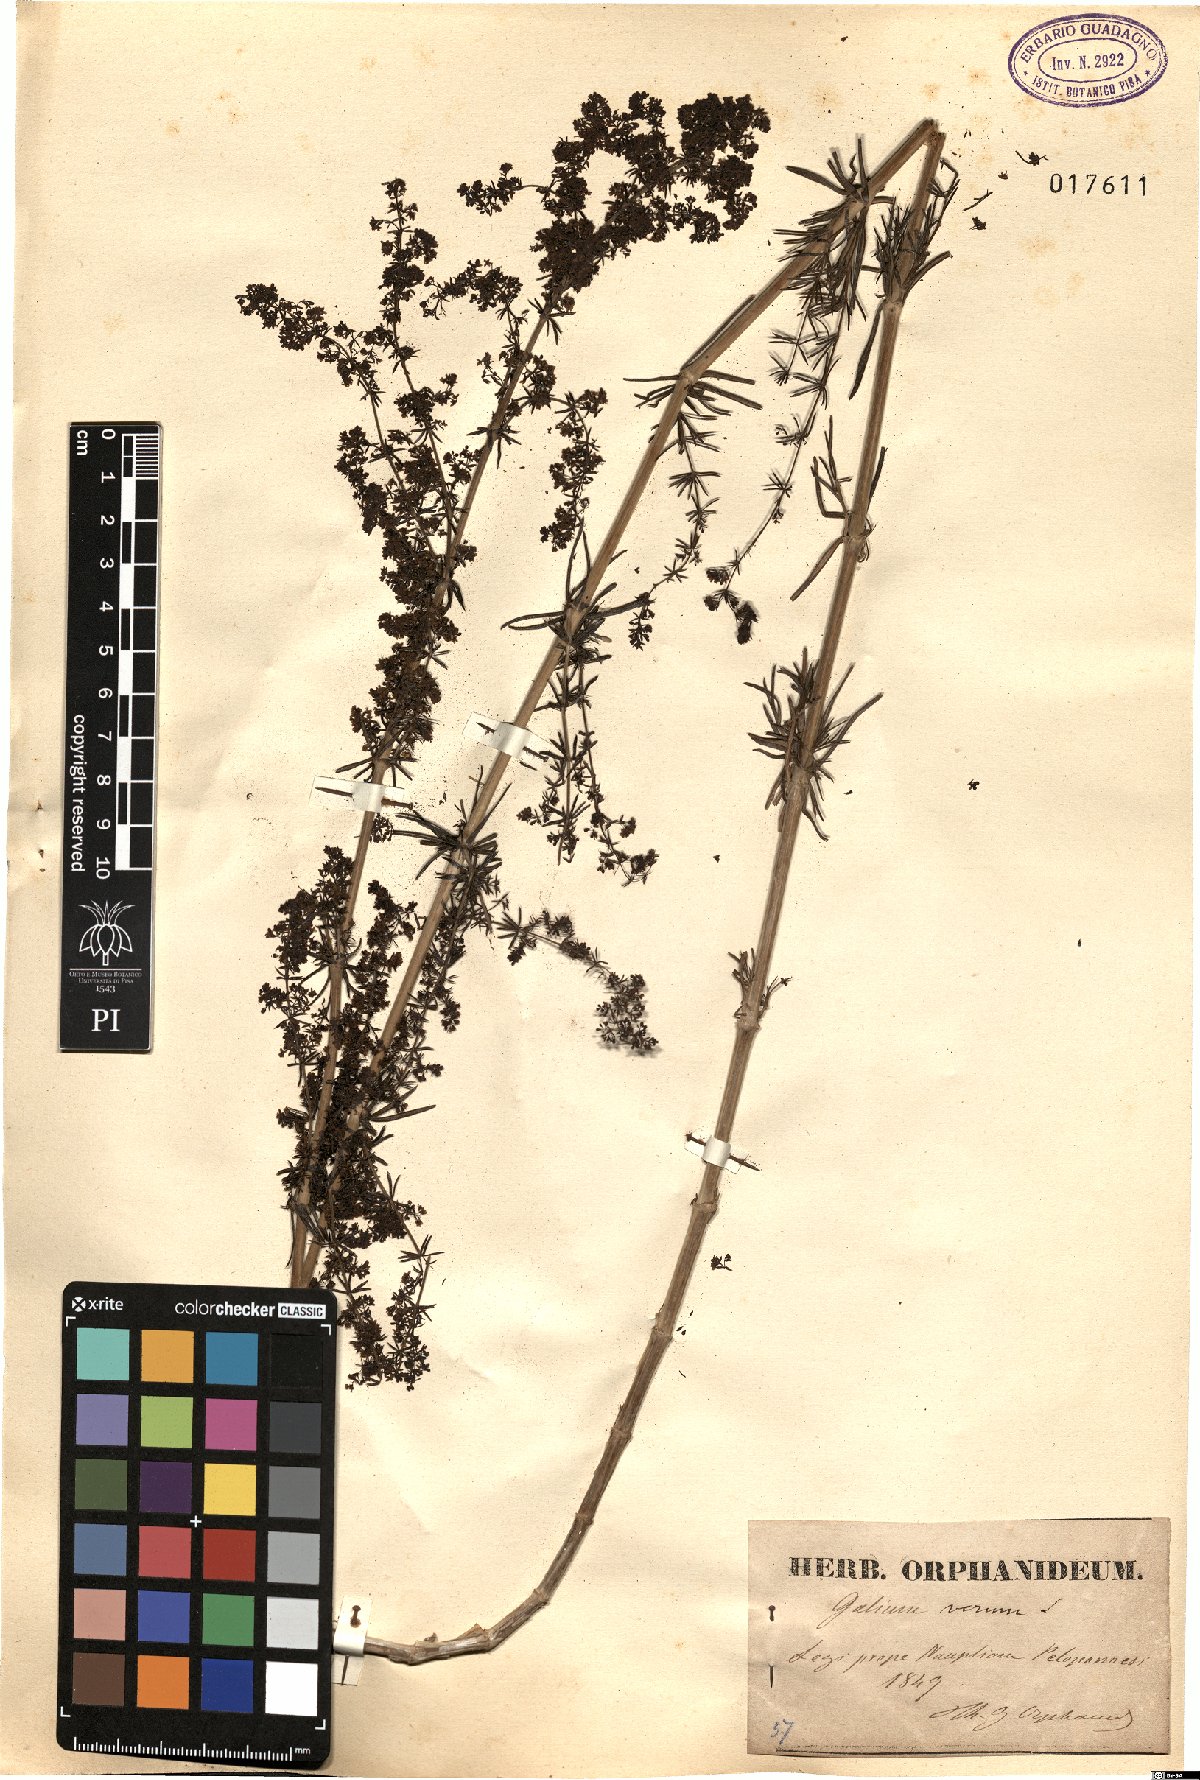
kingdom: Plantae
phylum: Tracheophyta
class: Magnoliopsida
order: Gentianales
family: Rubiaceae
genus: Galium
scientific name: Galium verum
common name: Lady's bedstraw
